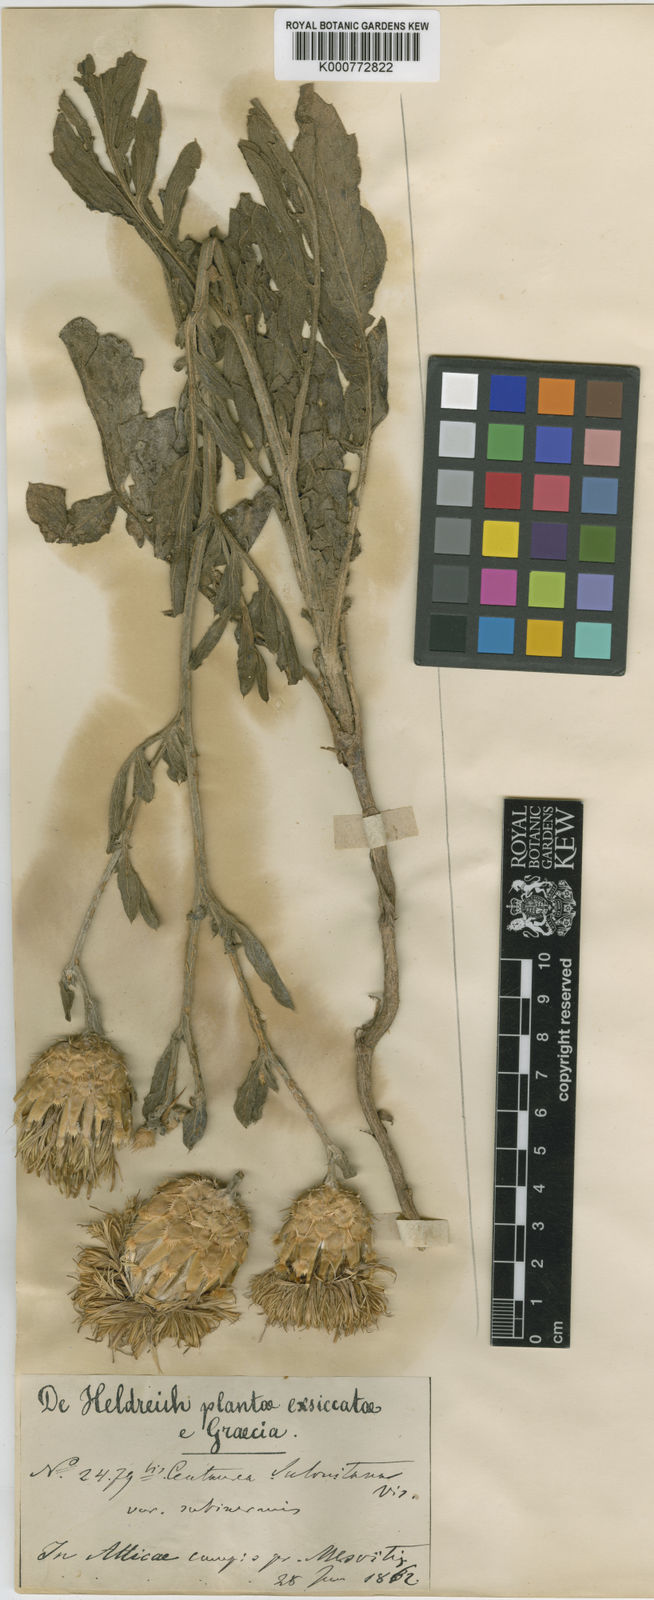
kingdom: Plantae
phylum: Tracheophyta
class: Magnoliopsida
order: Asterales
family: Asteraceae
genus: Centaurea
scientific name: Centaurea salonitana
